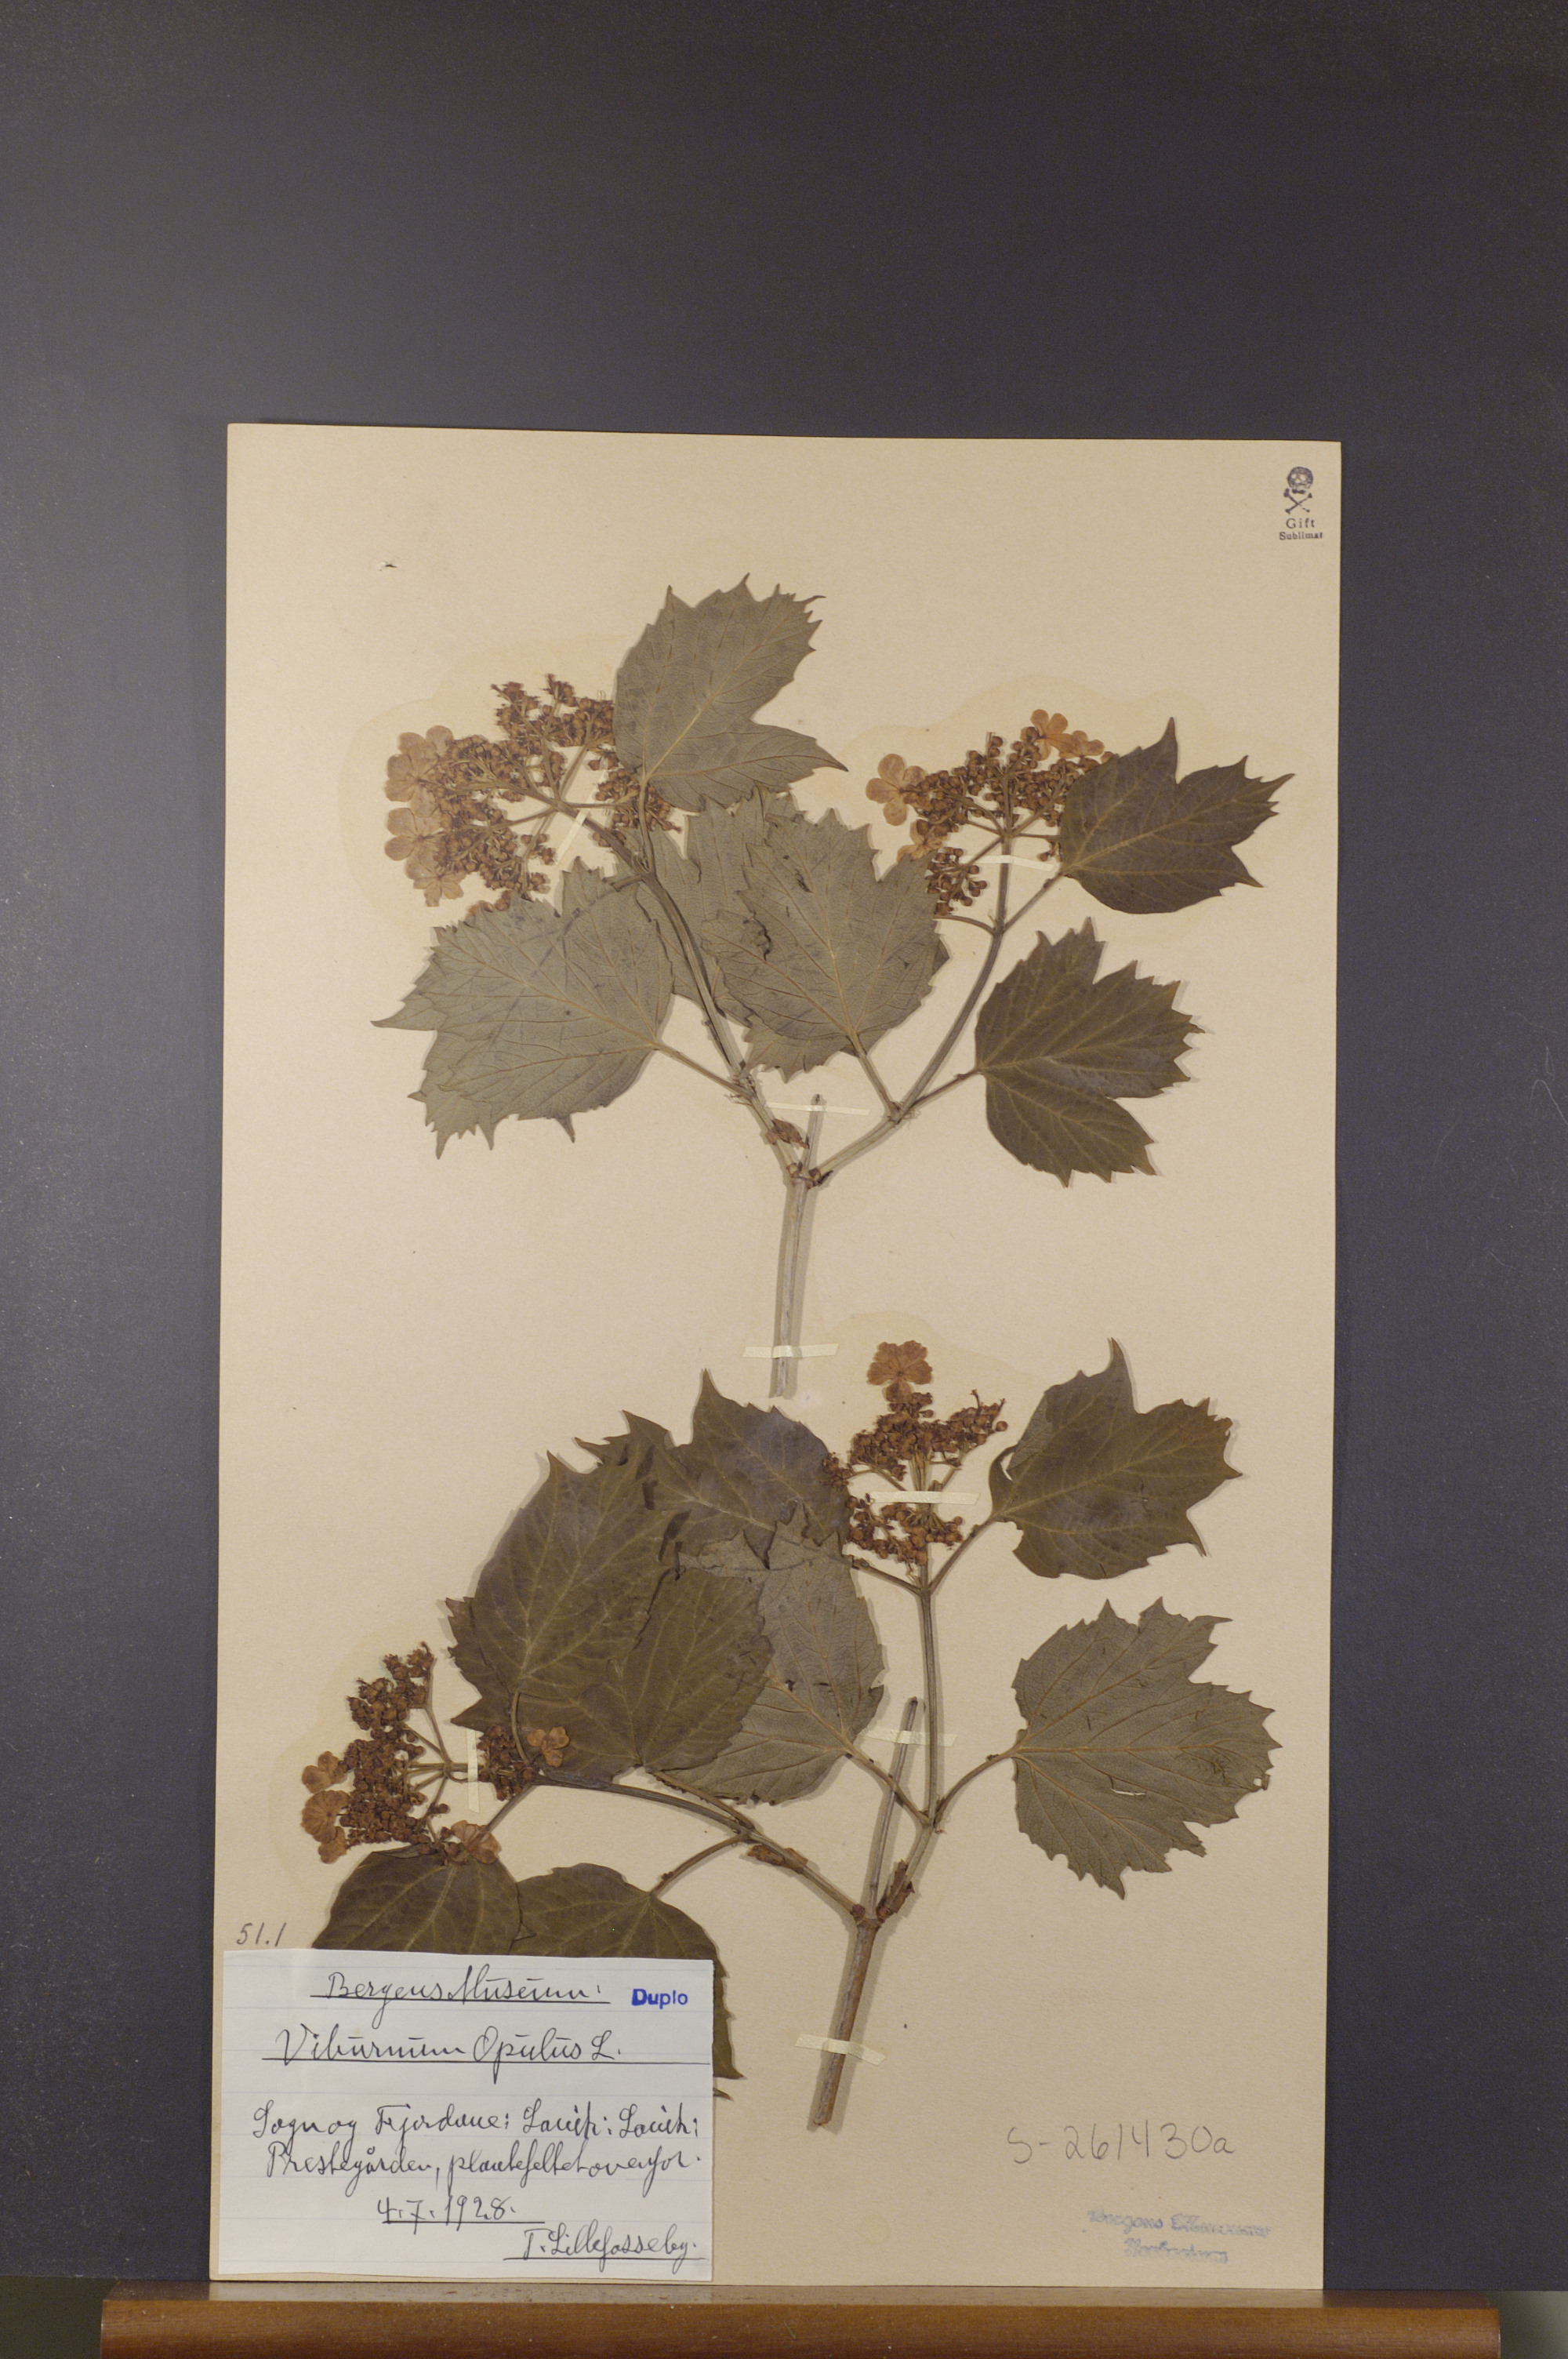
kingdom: Plantae
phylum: Tracheophyta
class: Magnoliopsida
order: Dipsacales
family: Viburnaceae
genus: Viburnum
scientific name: Viburnum opulus
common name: Guelder-rose
